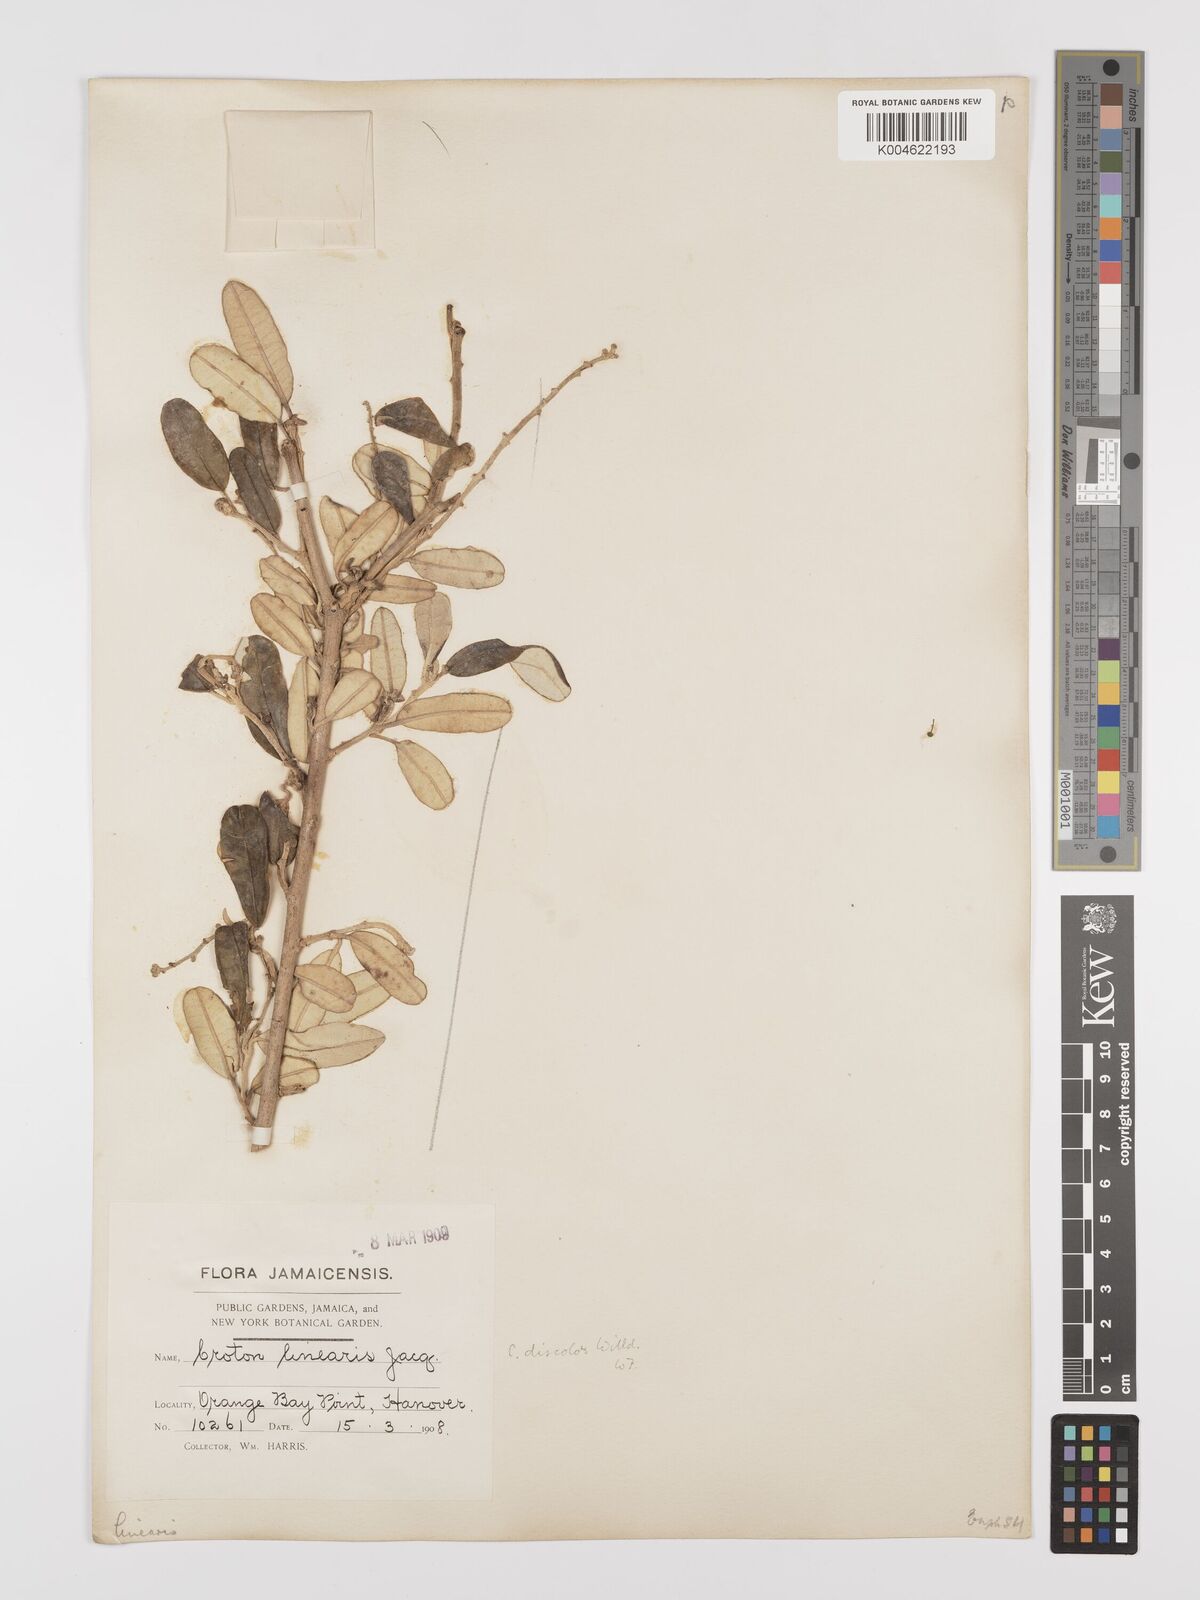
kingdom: Plantae
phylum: Tracheophyta
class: Magnoliopsida
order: Malpighiales
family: Euphorbiaceae
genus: Croton
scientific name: Croton
